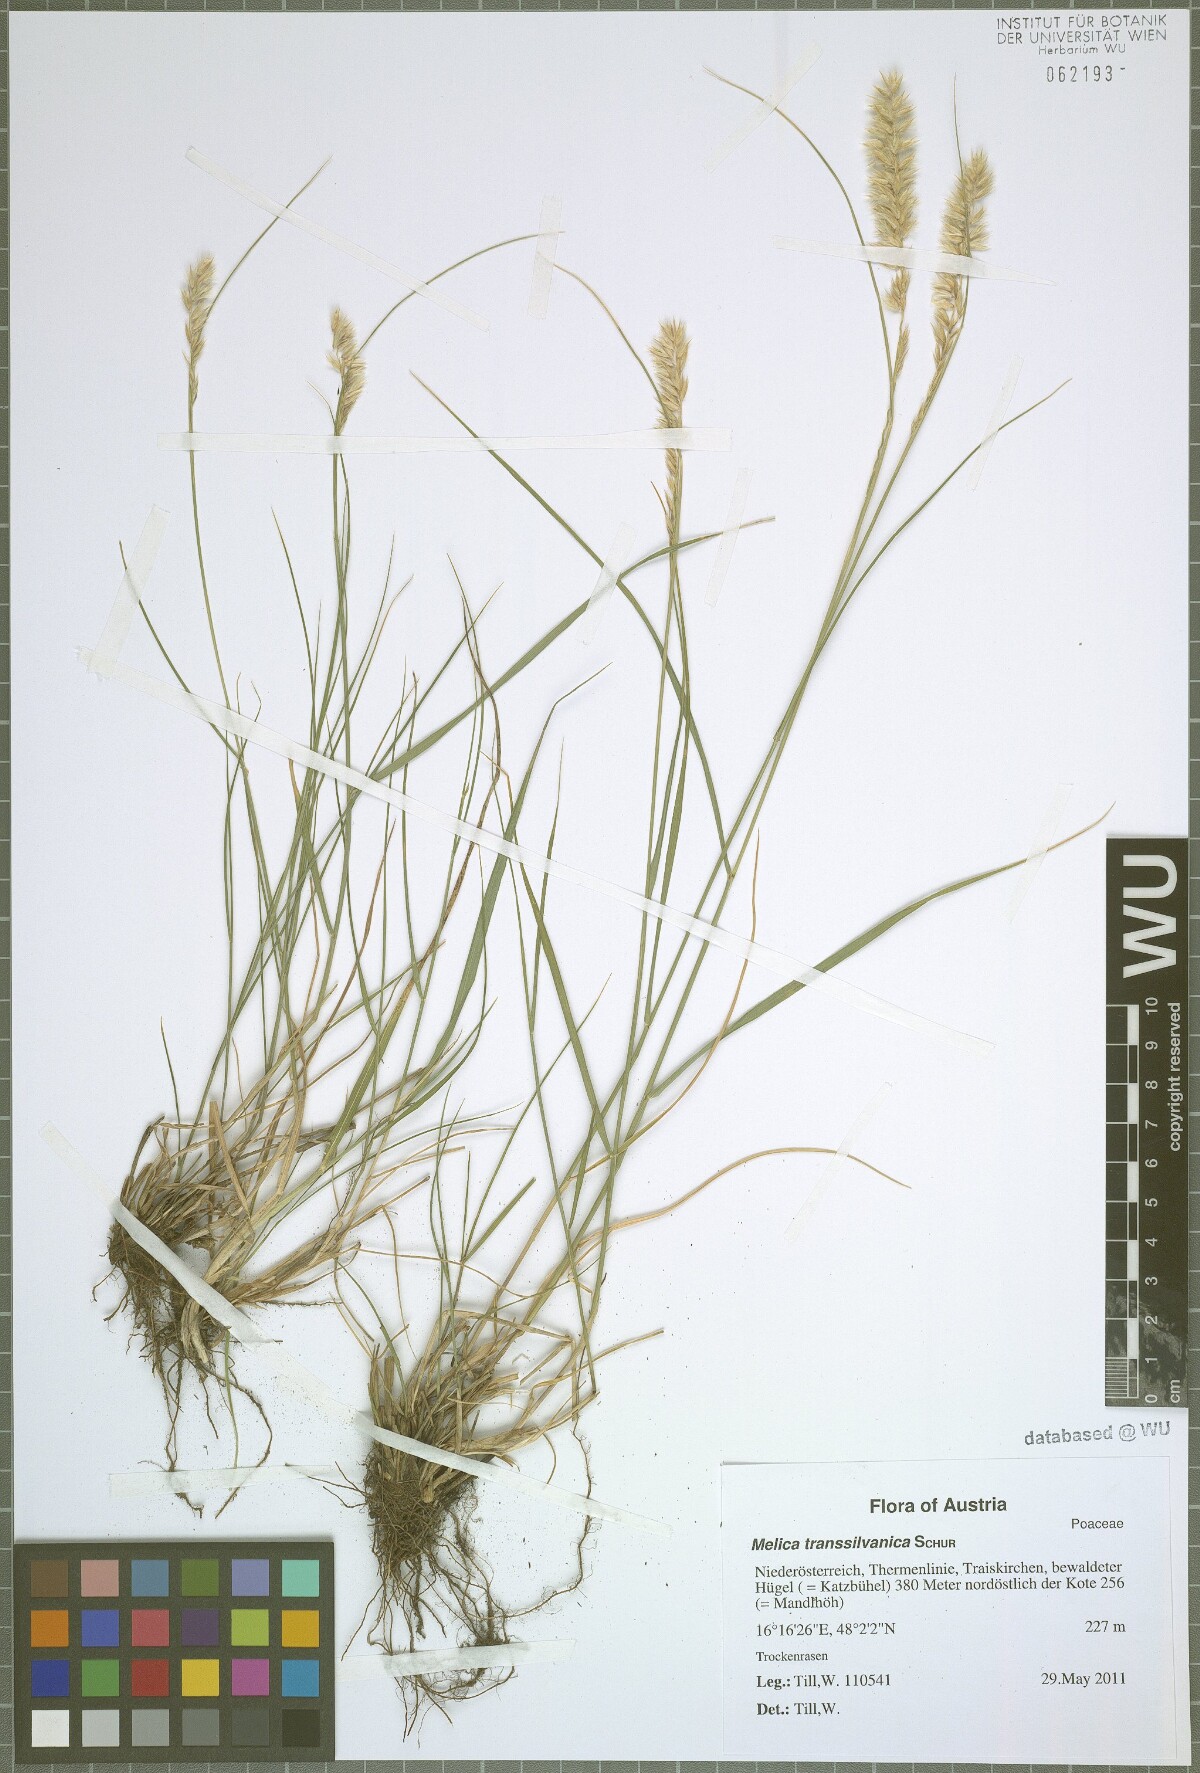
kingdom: Plantae
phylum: Tracheophyta
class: Liliopsida
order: Poales
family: Poaceae
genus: Melica
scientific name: Melica transsilvanica
